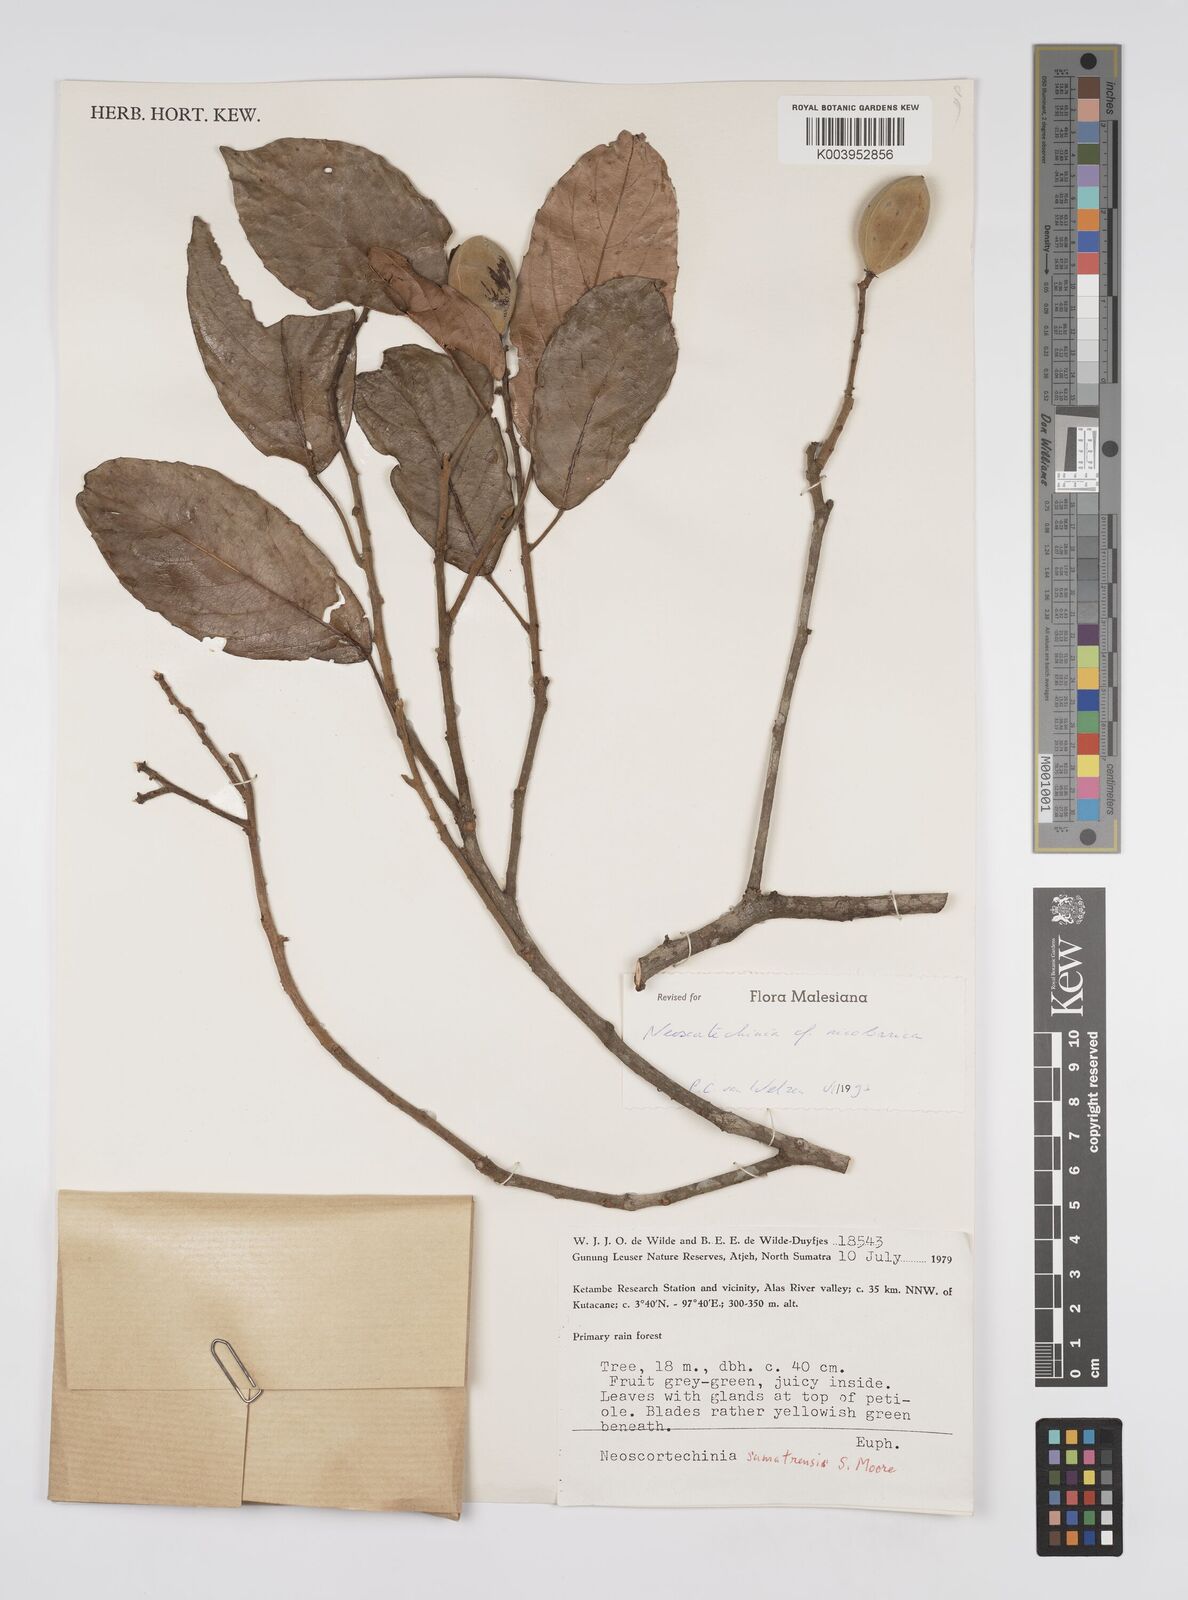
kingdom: Plantae
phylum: Tracheophyta
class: Magnoliopsida
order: Malpighiales
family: Euphorbiaceae
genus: Neoscortechinia
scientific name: Neoscortechinia nicobarica
